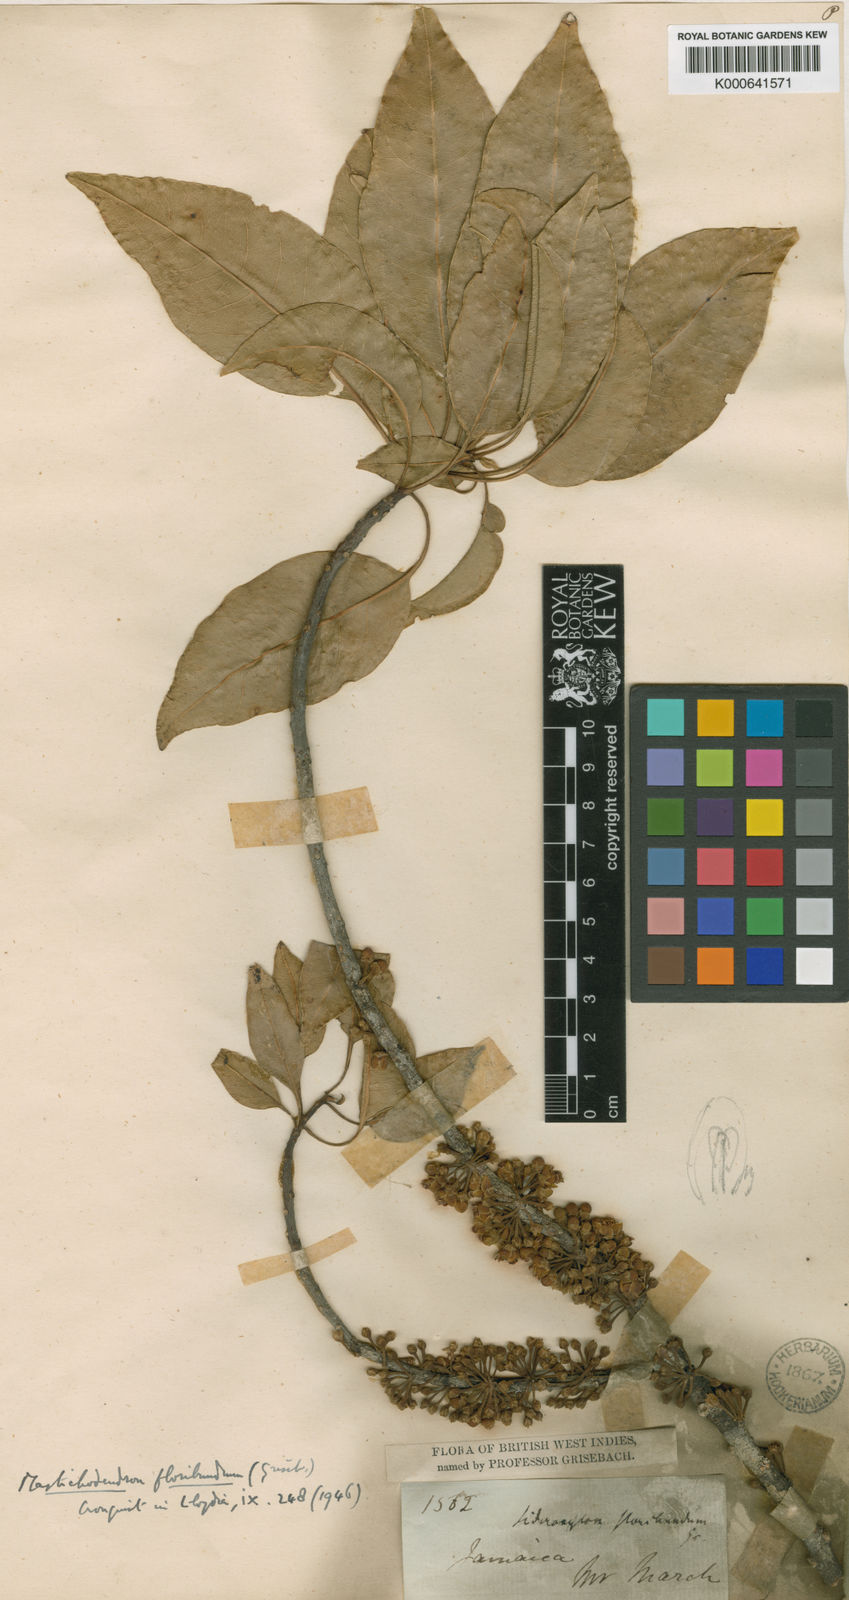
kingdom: Plantae
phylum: Tracheophyta
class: Magnoliopsida
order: Ericales
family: Sapotaceae
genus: Sideroxylon
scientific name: Sideroxylon floribundum
